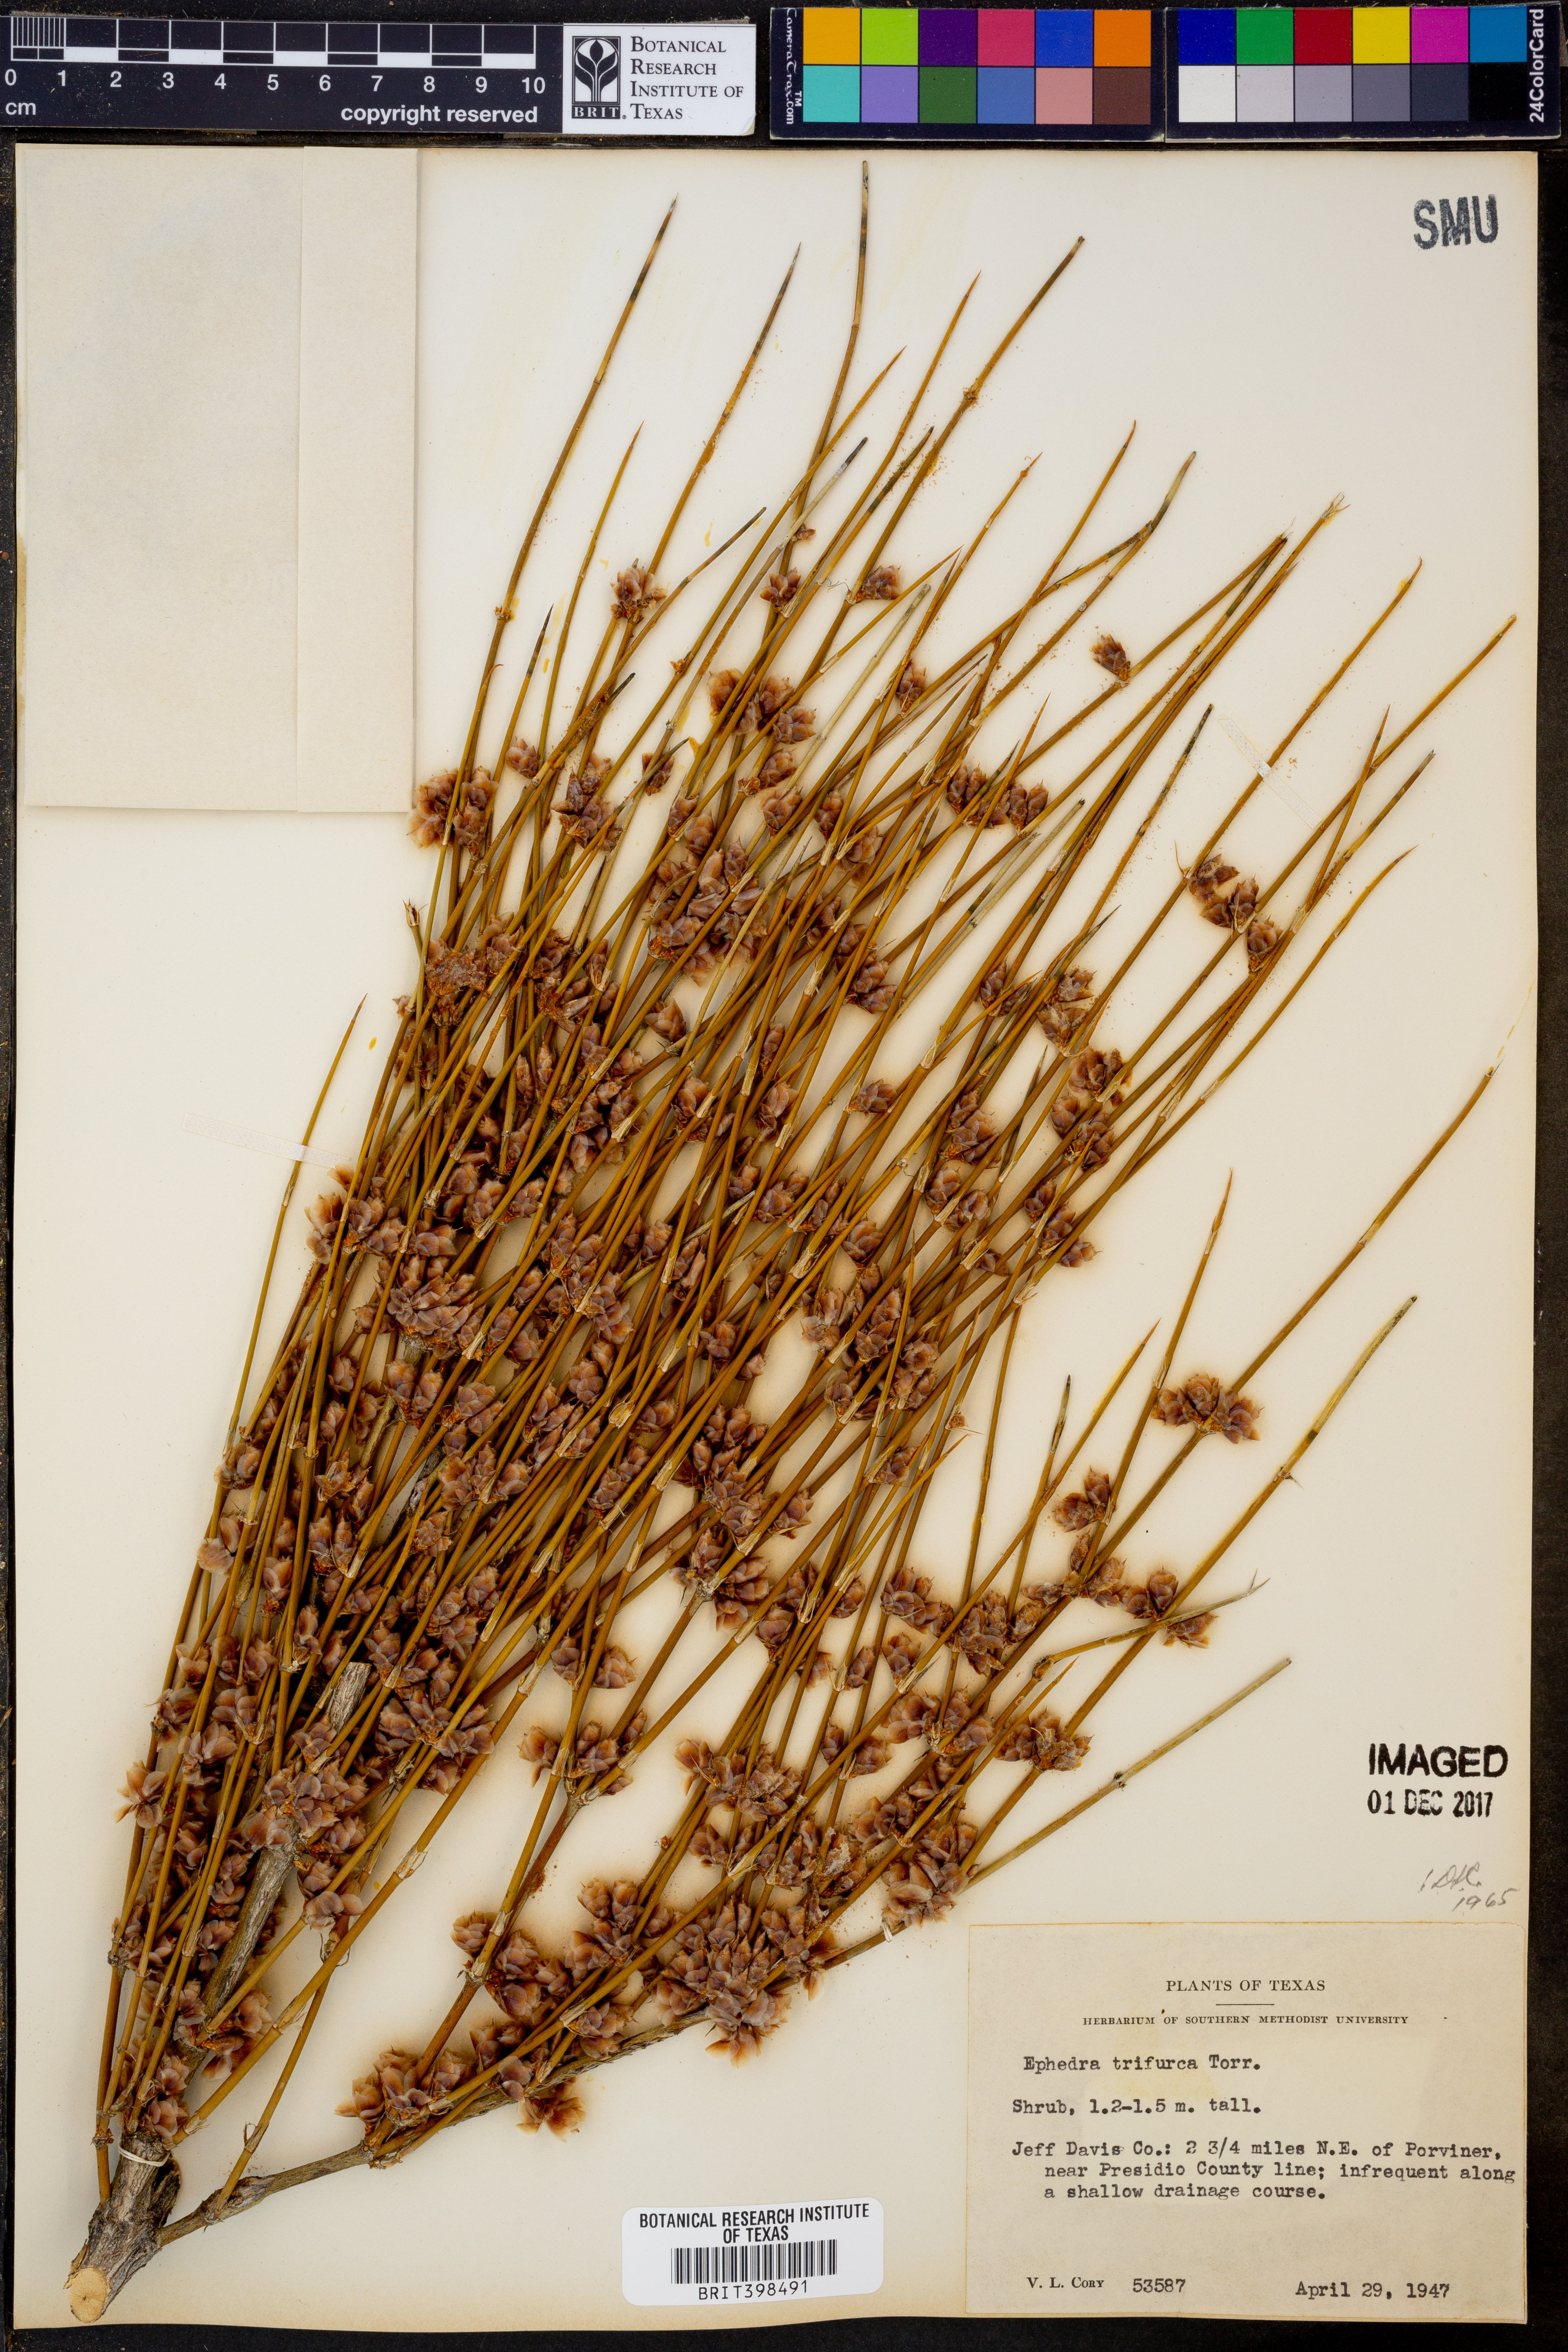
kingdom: Plantae
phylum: Tracheophyta
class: Gnetopsida
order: Ephedrales
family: Ephedraceae
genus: Ephedra
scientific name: Ephedra trifurca
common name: Mexican-tea
